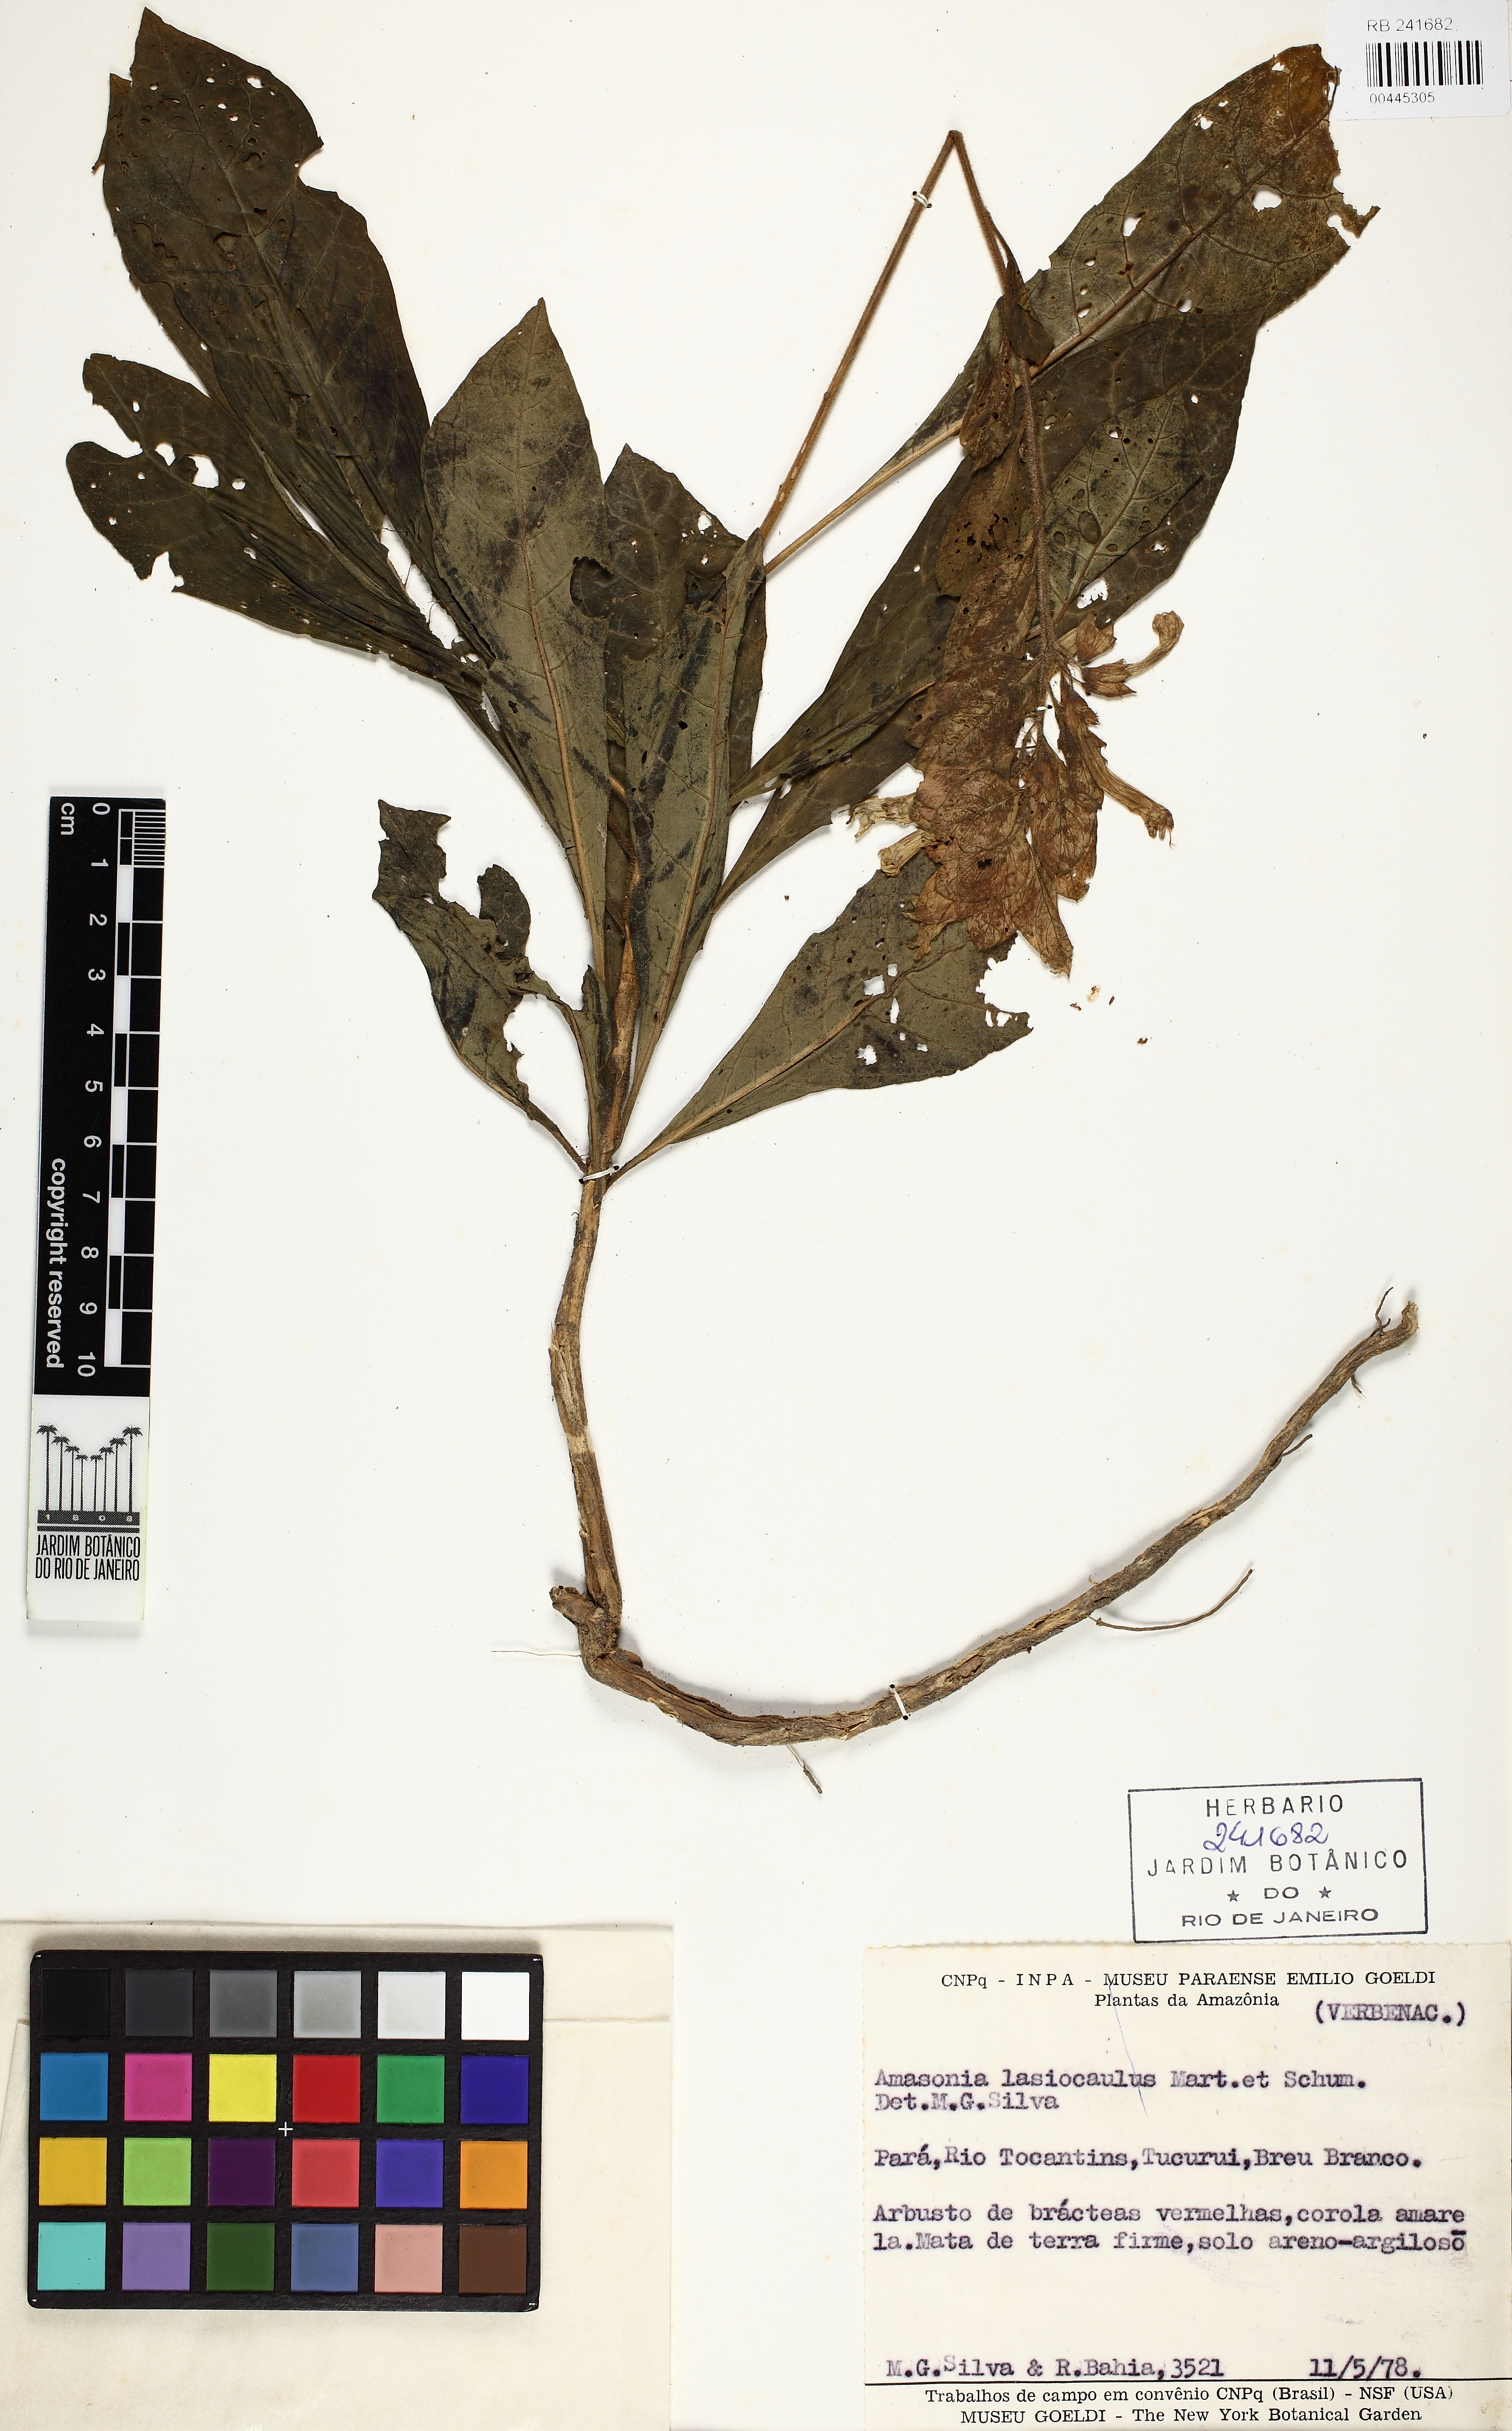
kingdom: Plantae
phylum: Tracheophyta
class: Magnoliopsida
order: Lamiales
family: Lamiaceae
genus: Amasonia
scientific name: Amasonia lasiocaulos
